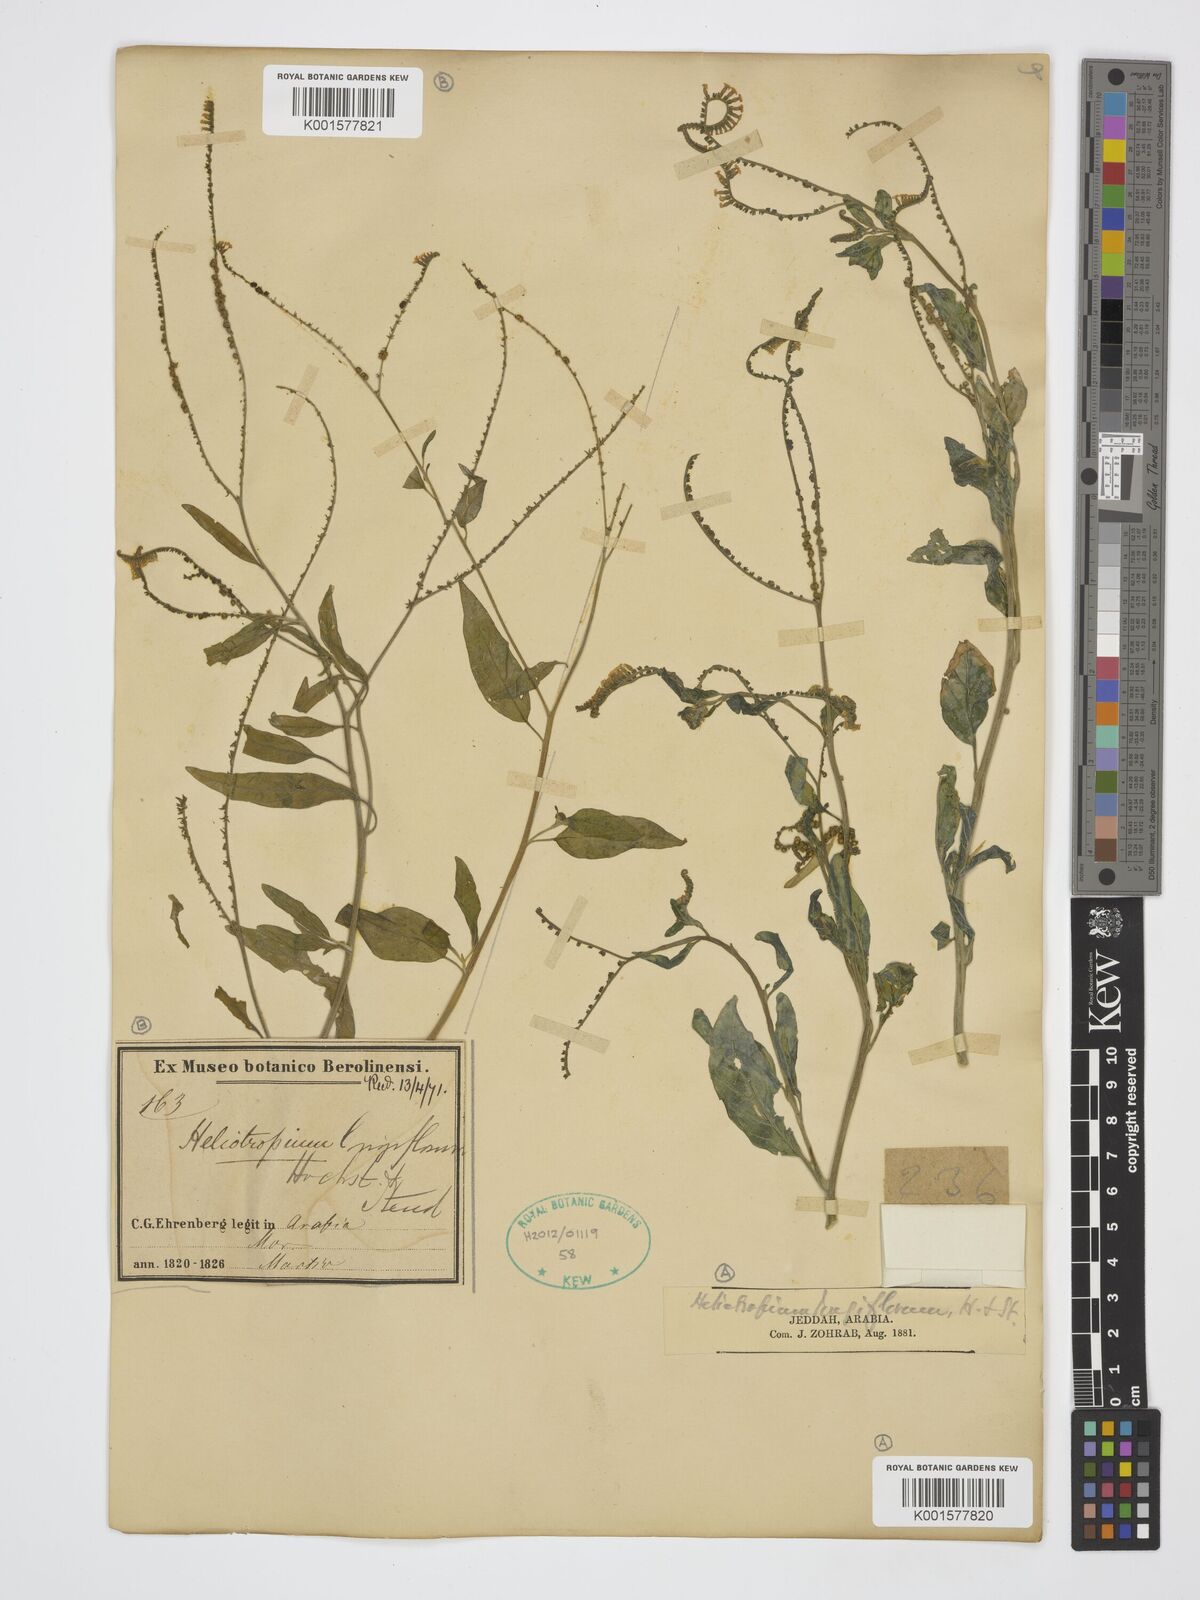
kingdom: Plantae
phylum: Tracheophyta
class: Magnoliopsida
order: Boraginales
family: Heliotropiaceae
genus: Heliotropium
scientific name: Heliotropium longiflorum
